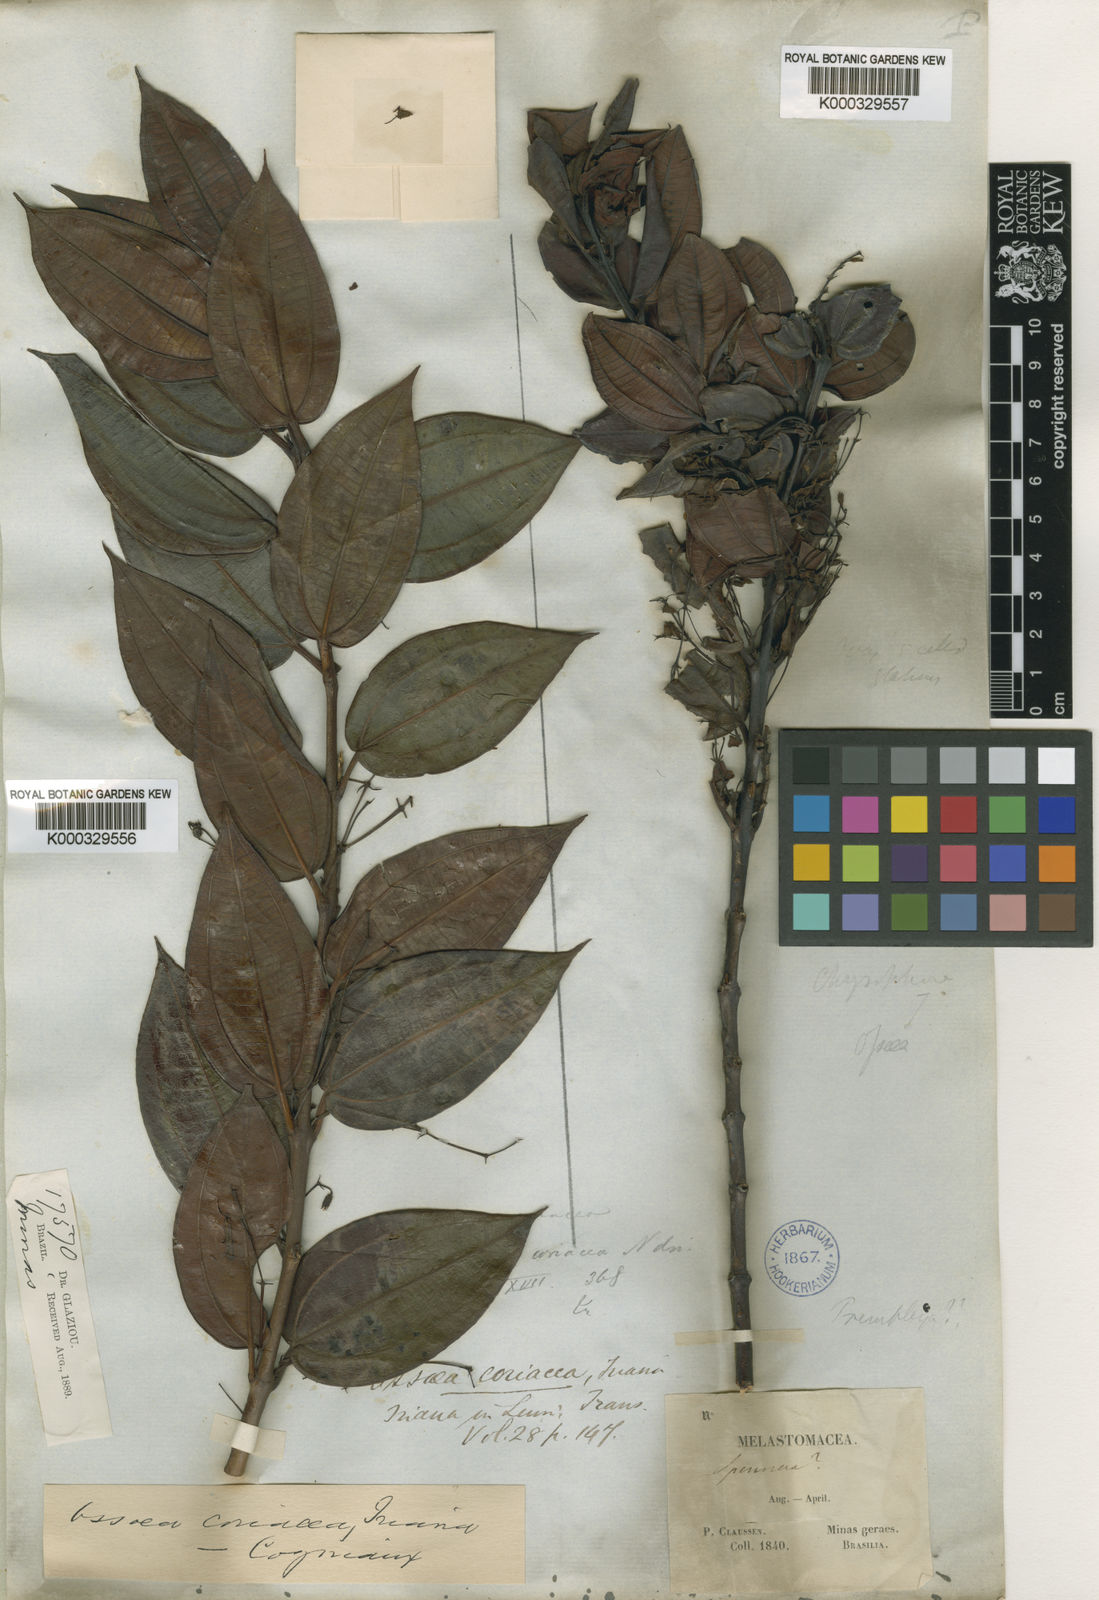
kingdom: Plantae
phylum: Tracheophyta
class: Magnoliopsida
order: Myrtales
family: Melastomataceae
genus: Miconia
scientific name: Miconia leabiscoriacea
